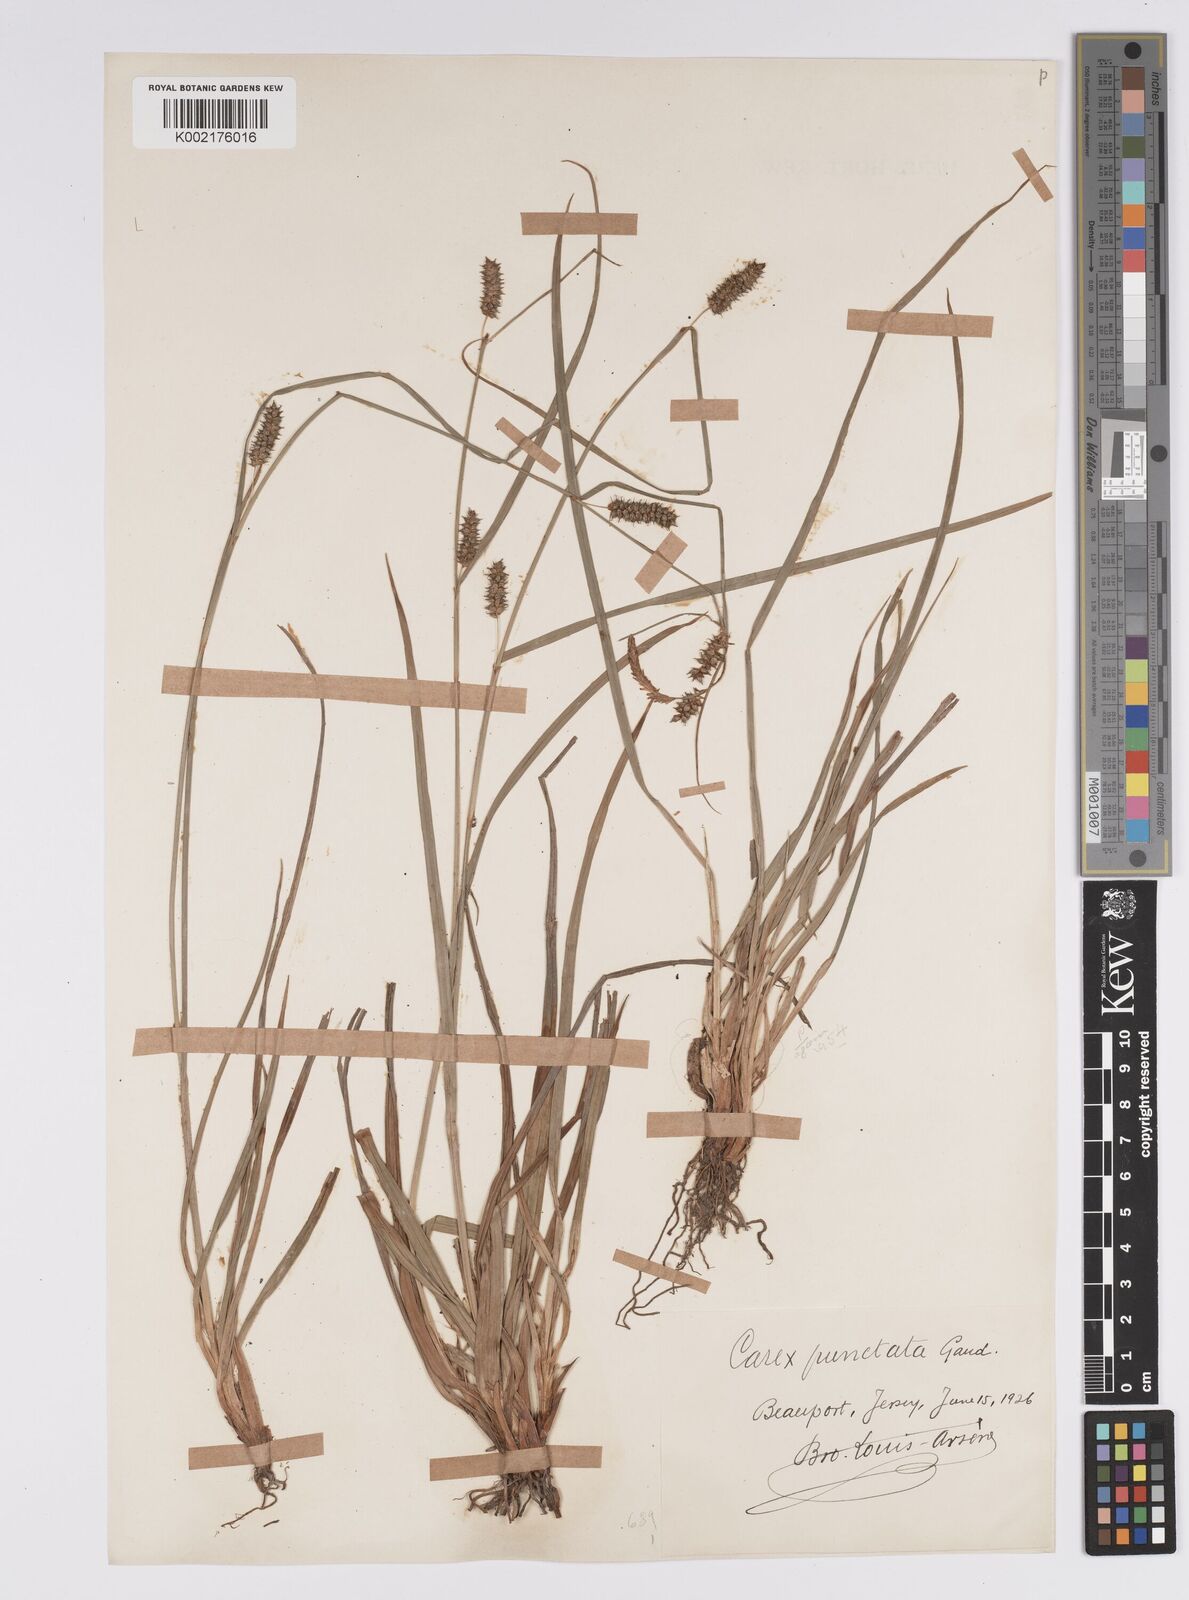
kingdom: Plantae
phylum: Tracheophyta
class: Liliopsida
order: Poales
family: Cyperaceae
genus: Carex
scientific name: Carex punctata
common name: Dotted sedge
